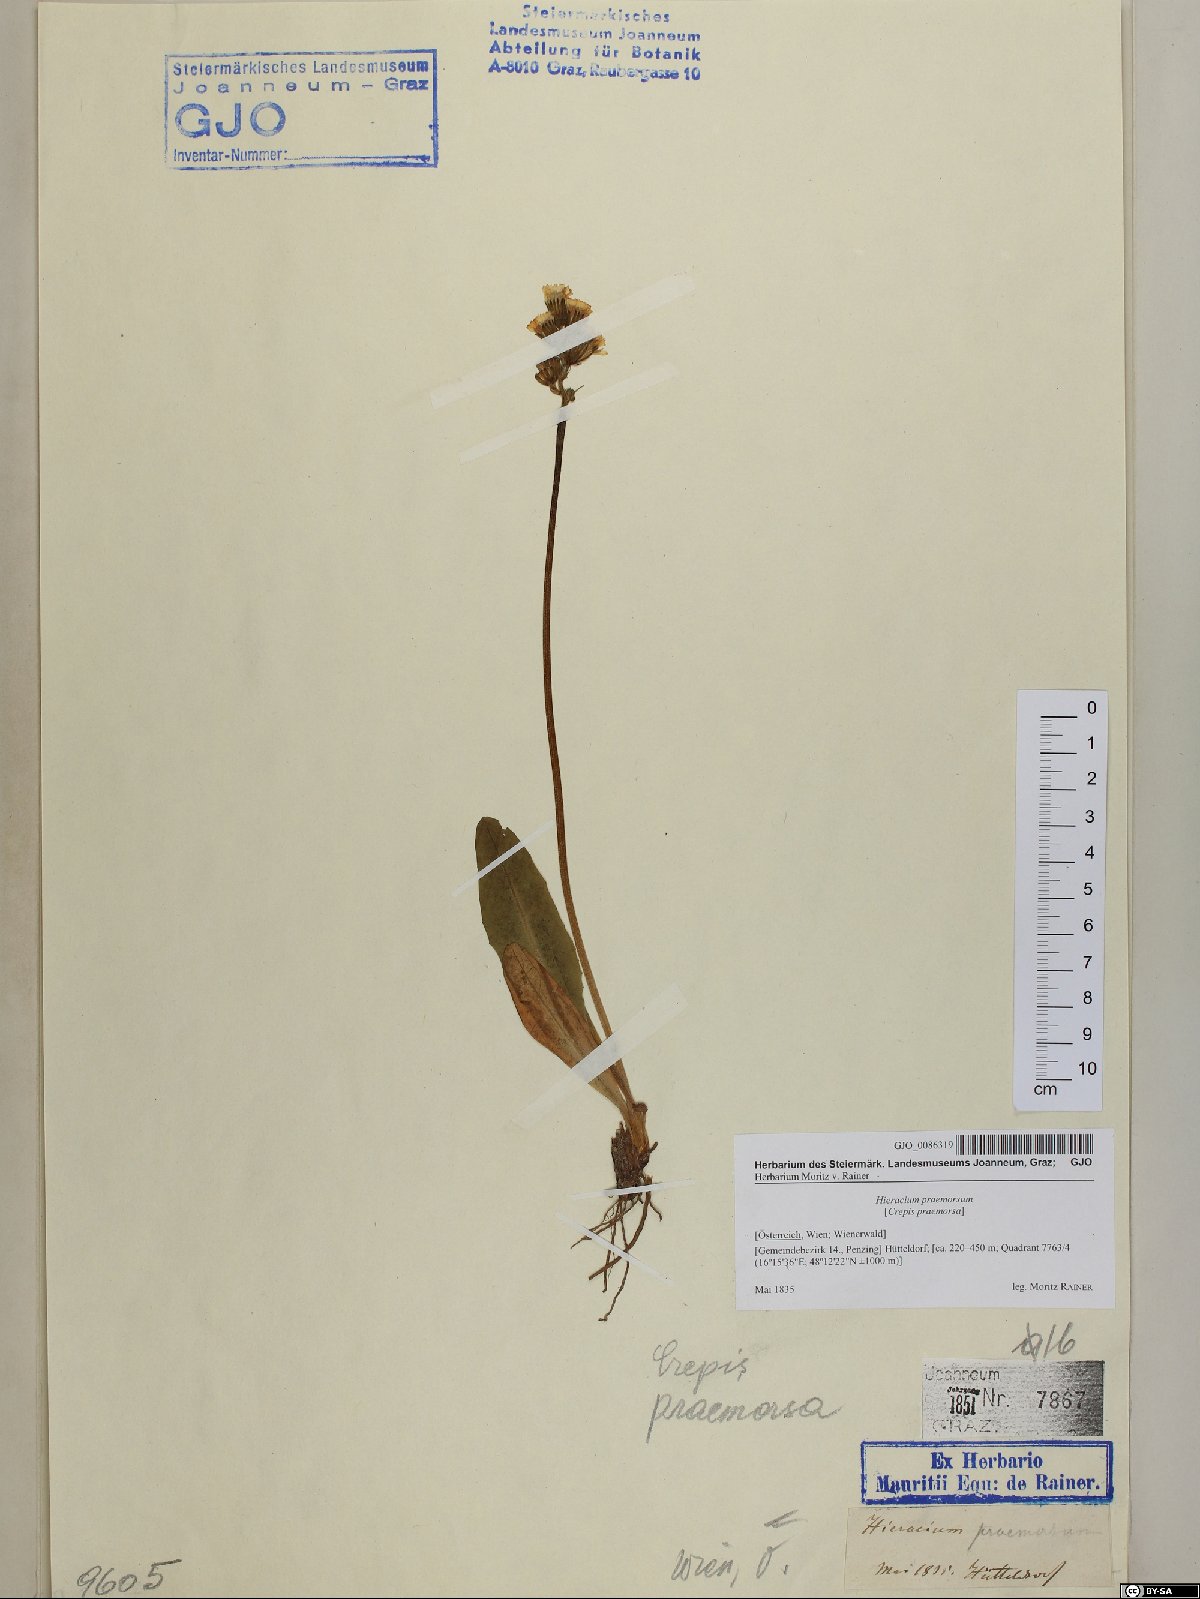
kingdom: Plantae
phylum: Tracheophyta
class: Magnoliopsida
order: Asterales
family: Asteraceae
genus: Crepis
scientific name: Crepis praemorsa
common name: Leafless hawk's-beard
